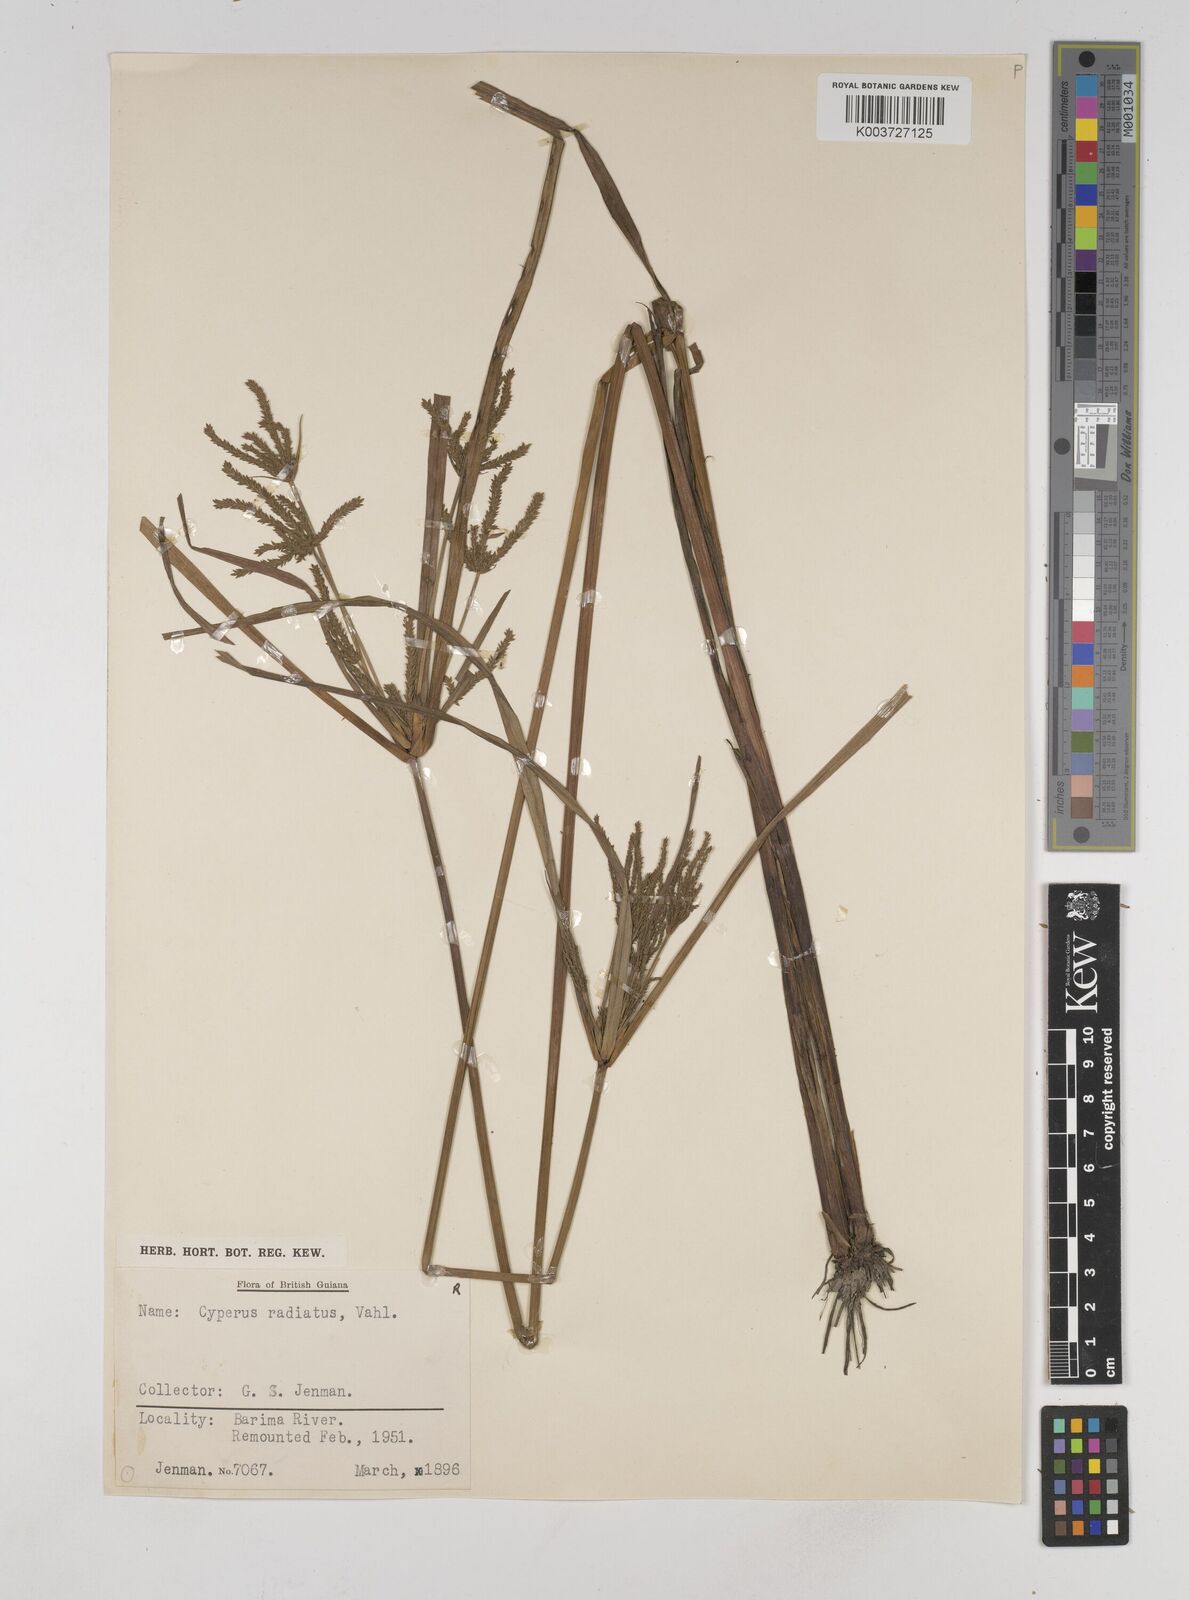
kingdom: Plantae
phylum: Tracheophyta
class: Liliopsida
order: Poales
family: Cyperaceae
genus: Cyperus
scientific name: Cyperus imbricatus
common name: Shingle flatsedge
